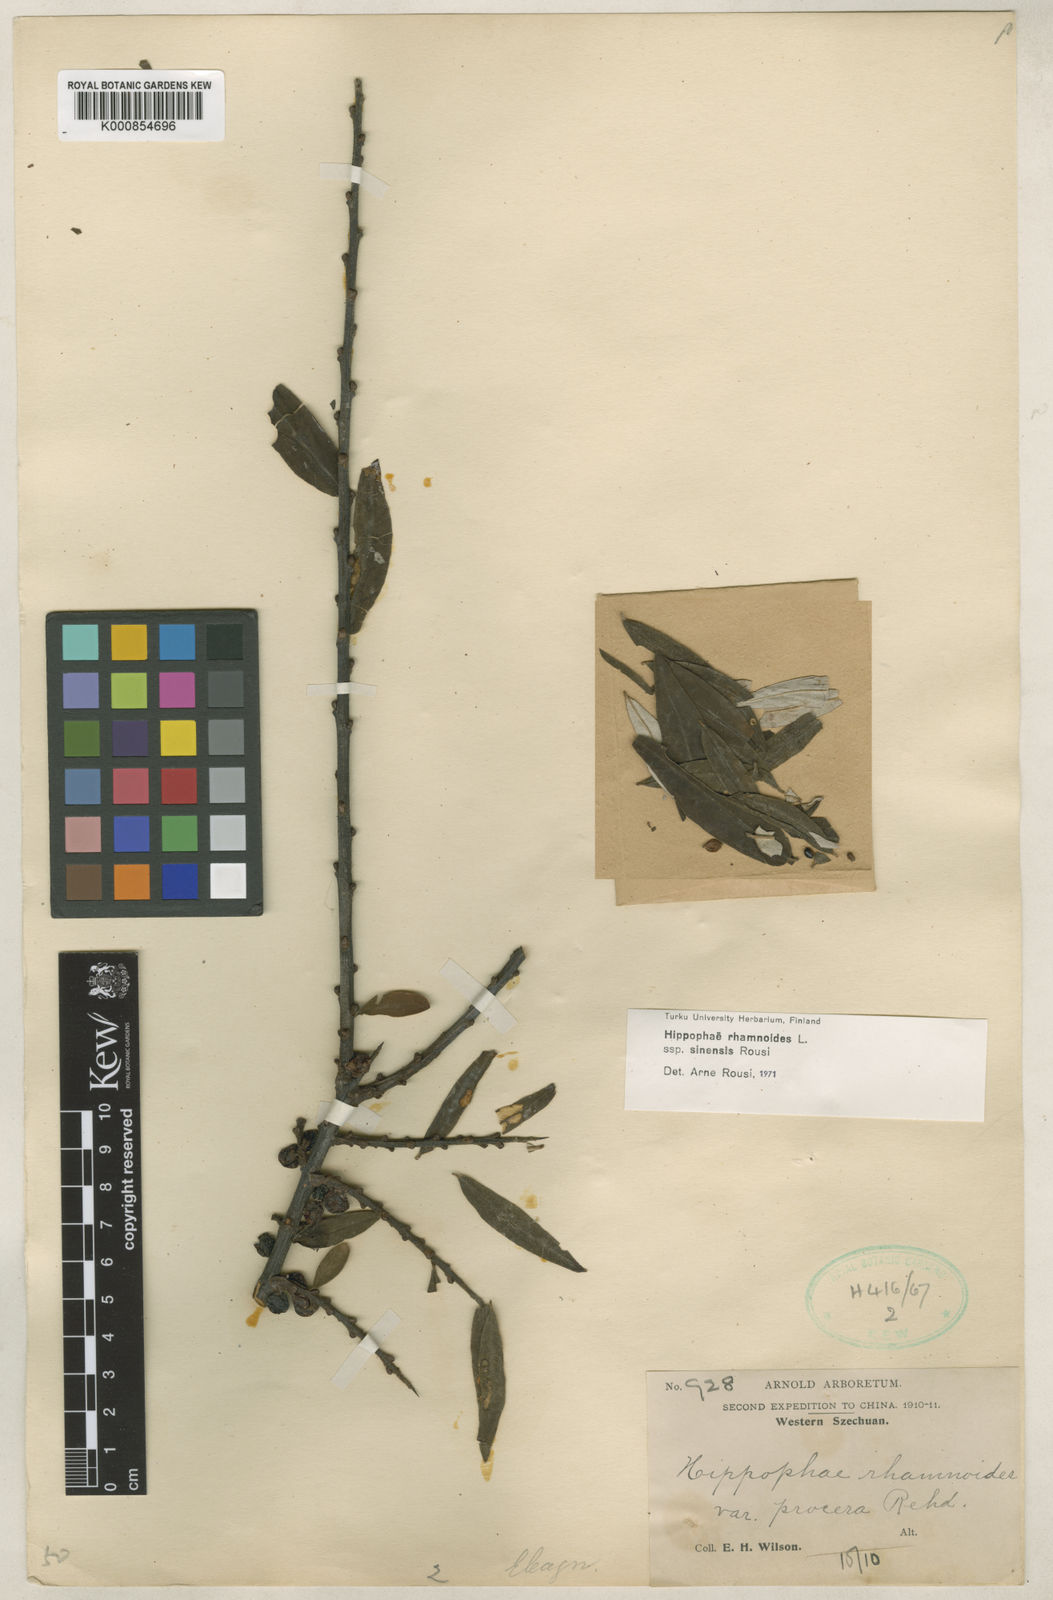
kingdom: Plantae
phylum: Tracheophyta
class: Magnoliopsida
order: Rosales
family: Elaeagnaceae
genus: Hippophae
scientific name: Hippophae rhamnoides
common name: Sea-buckthorn
